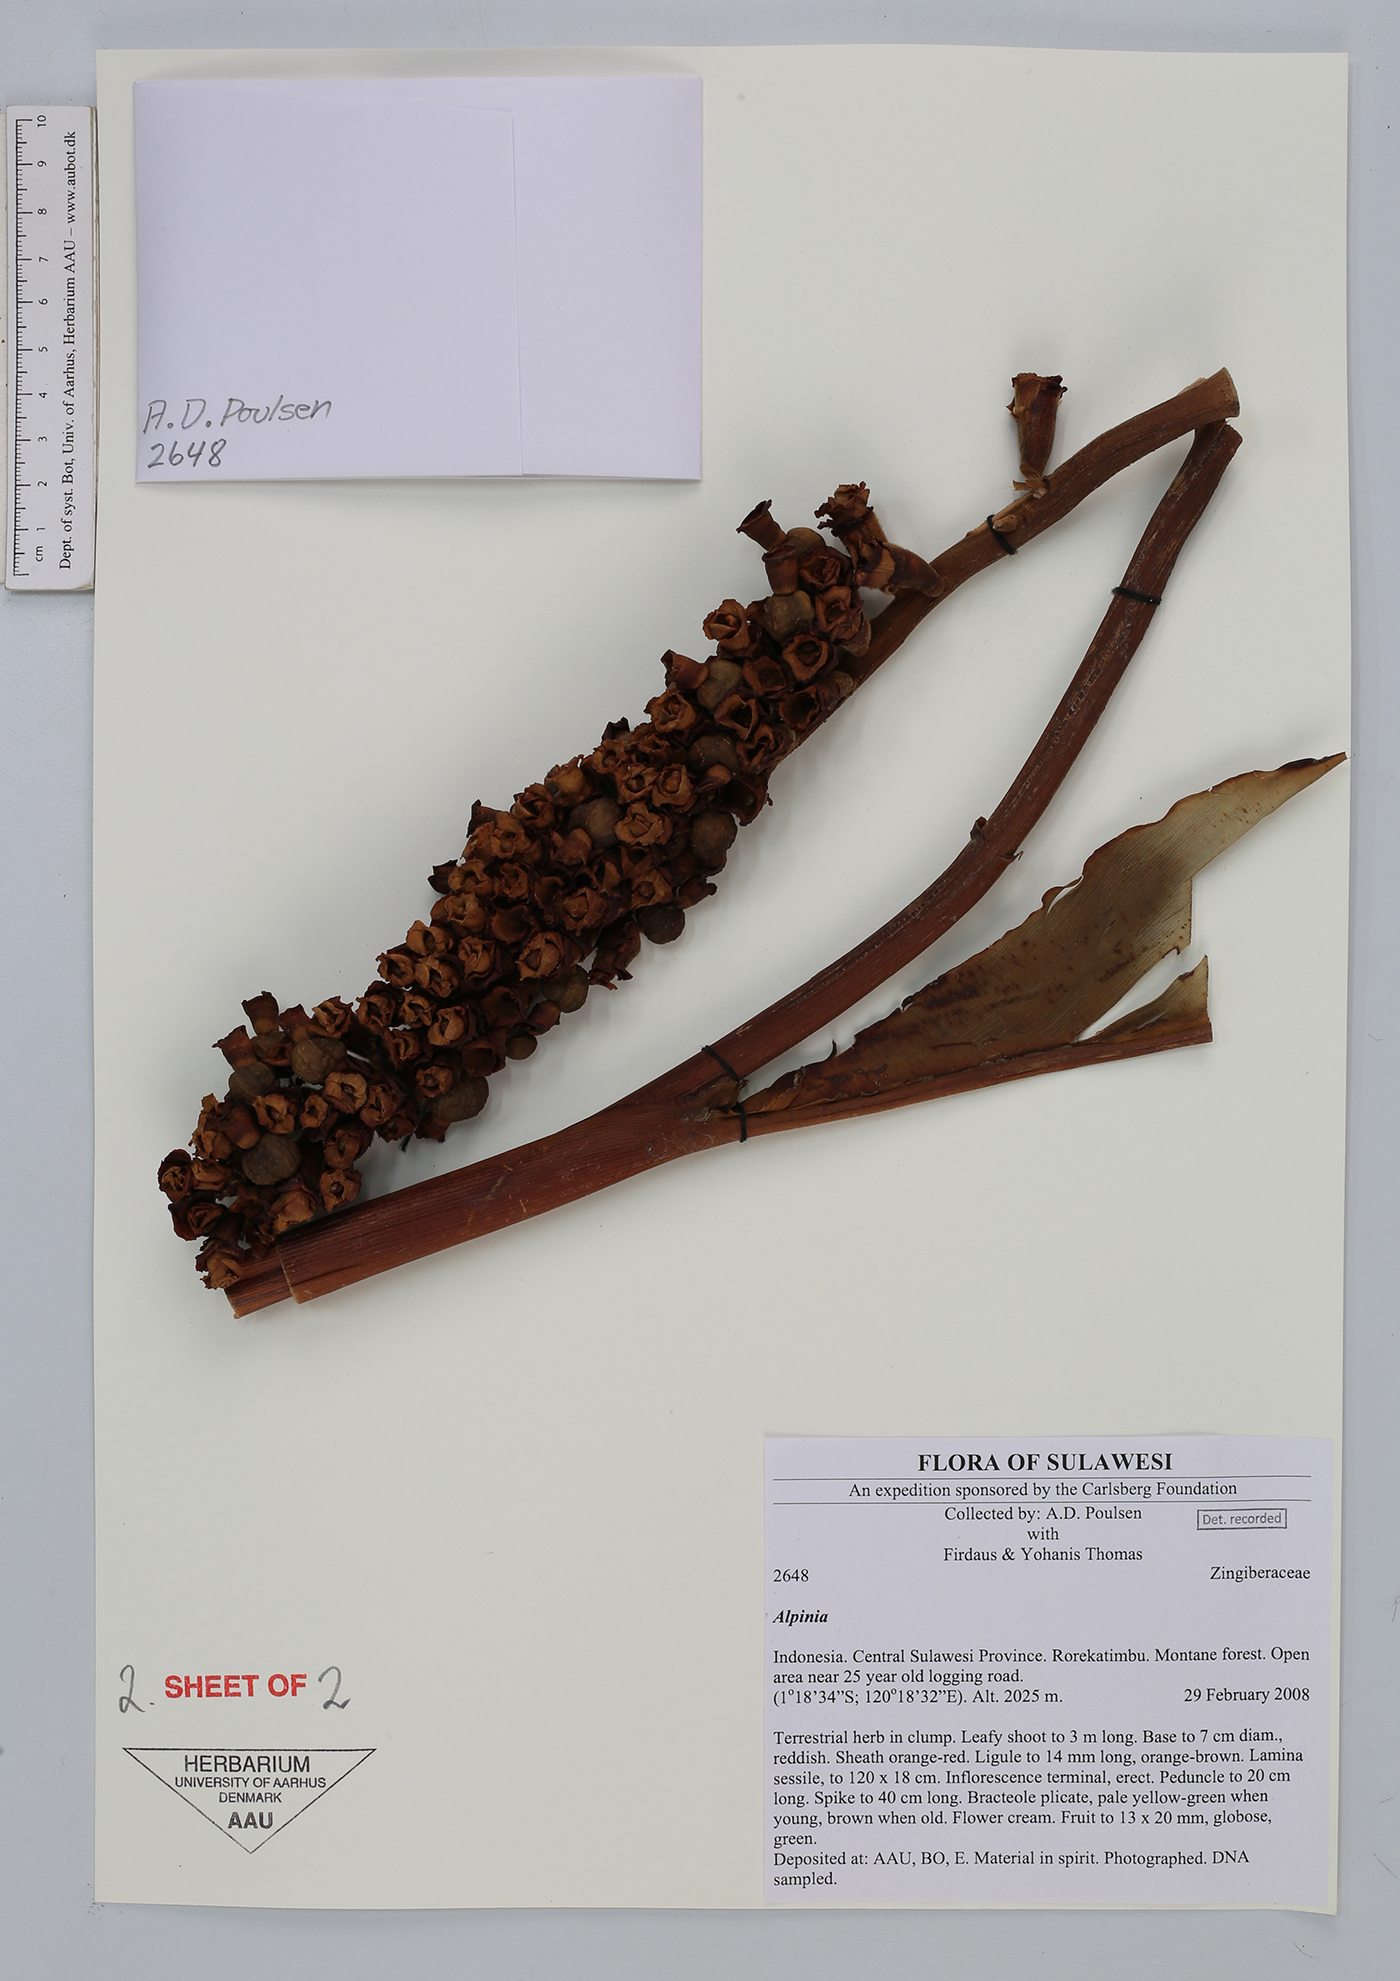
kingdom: Plantae
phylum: Tracheophyta
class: Liliopsida
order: Zingiberales
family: Zingiberaceae
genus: Alpinia
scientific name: Alpinia
